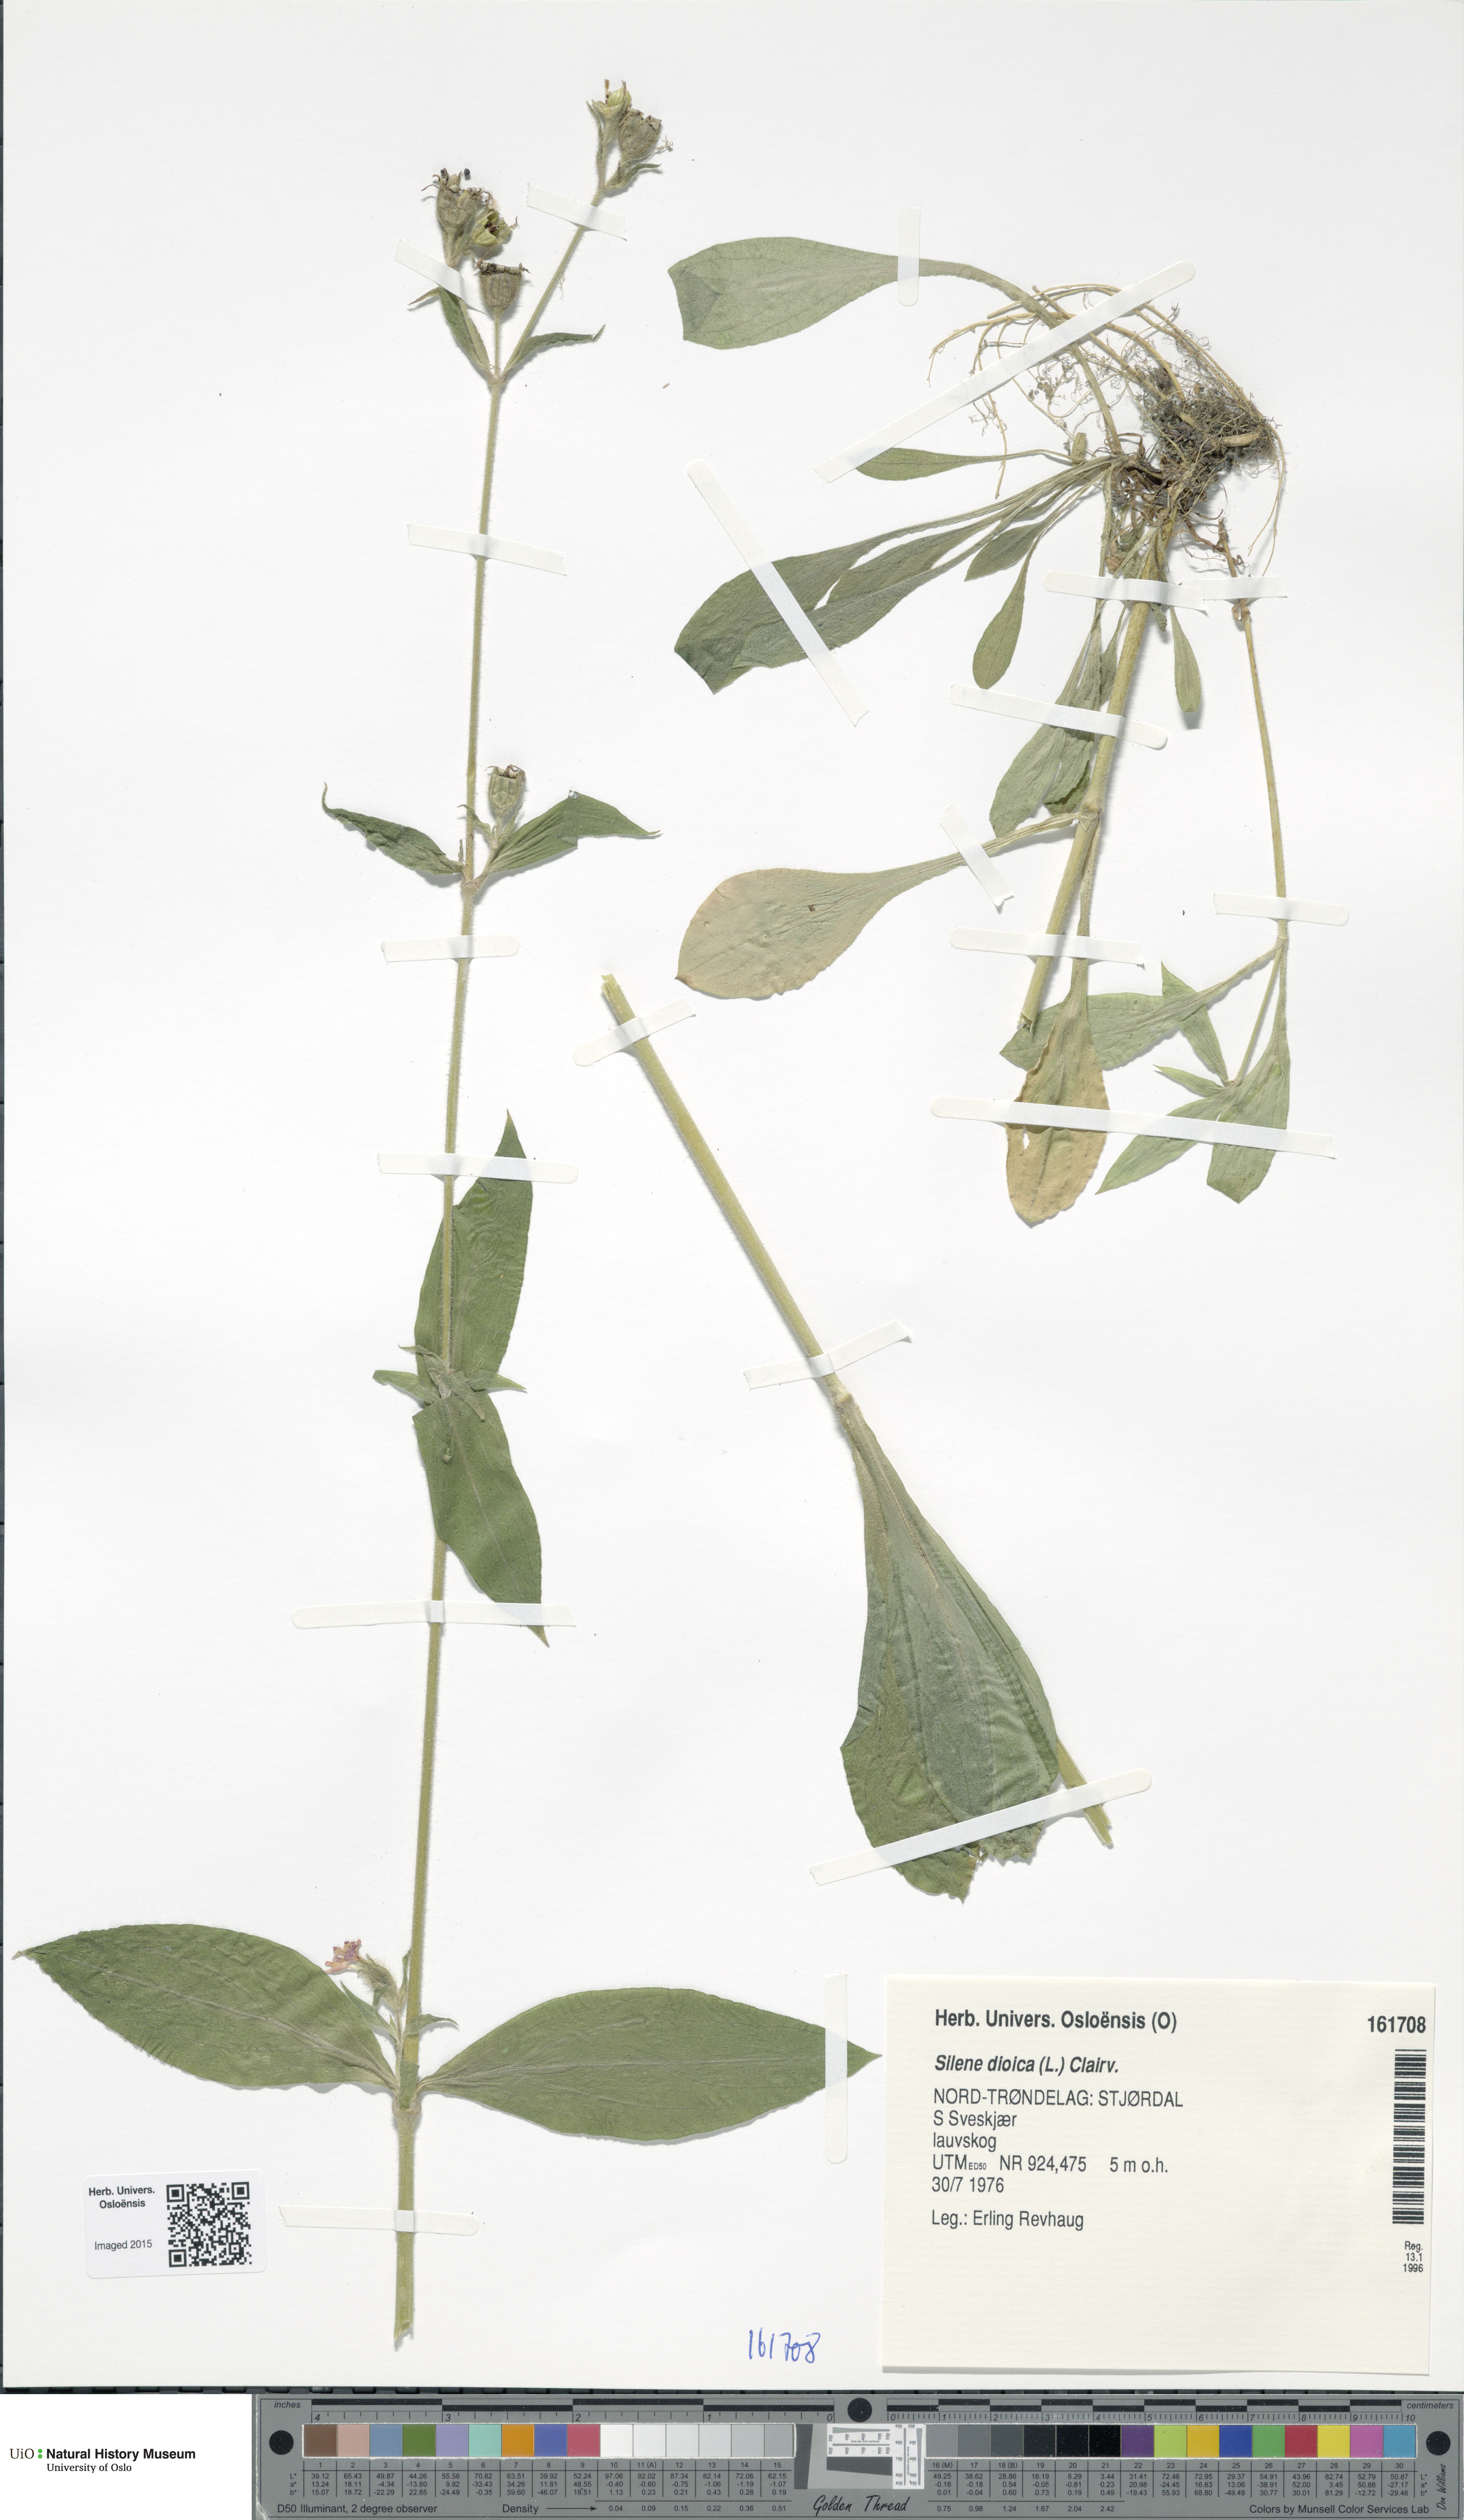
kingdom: Plantae
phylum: Tracheophyta
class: Magnoliopsida
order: Caryophyllales
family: Caryophyllaceae
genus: Silene
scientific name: Silene dioica
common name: Red campion
